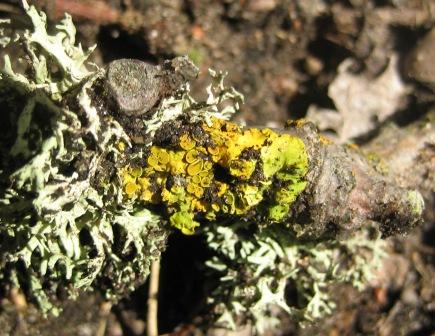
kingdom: Fungi
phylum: Ascomycota
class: Lecanoromycetes
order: Teloschistales
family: Teloschistaceae
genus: Xanthoria
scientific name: Xanthoria parietina
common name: almindelig væggelav
